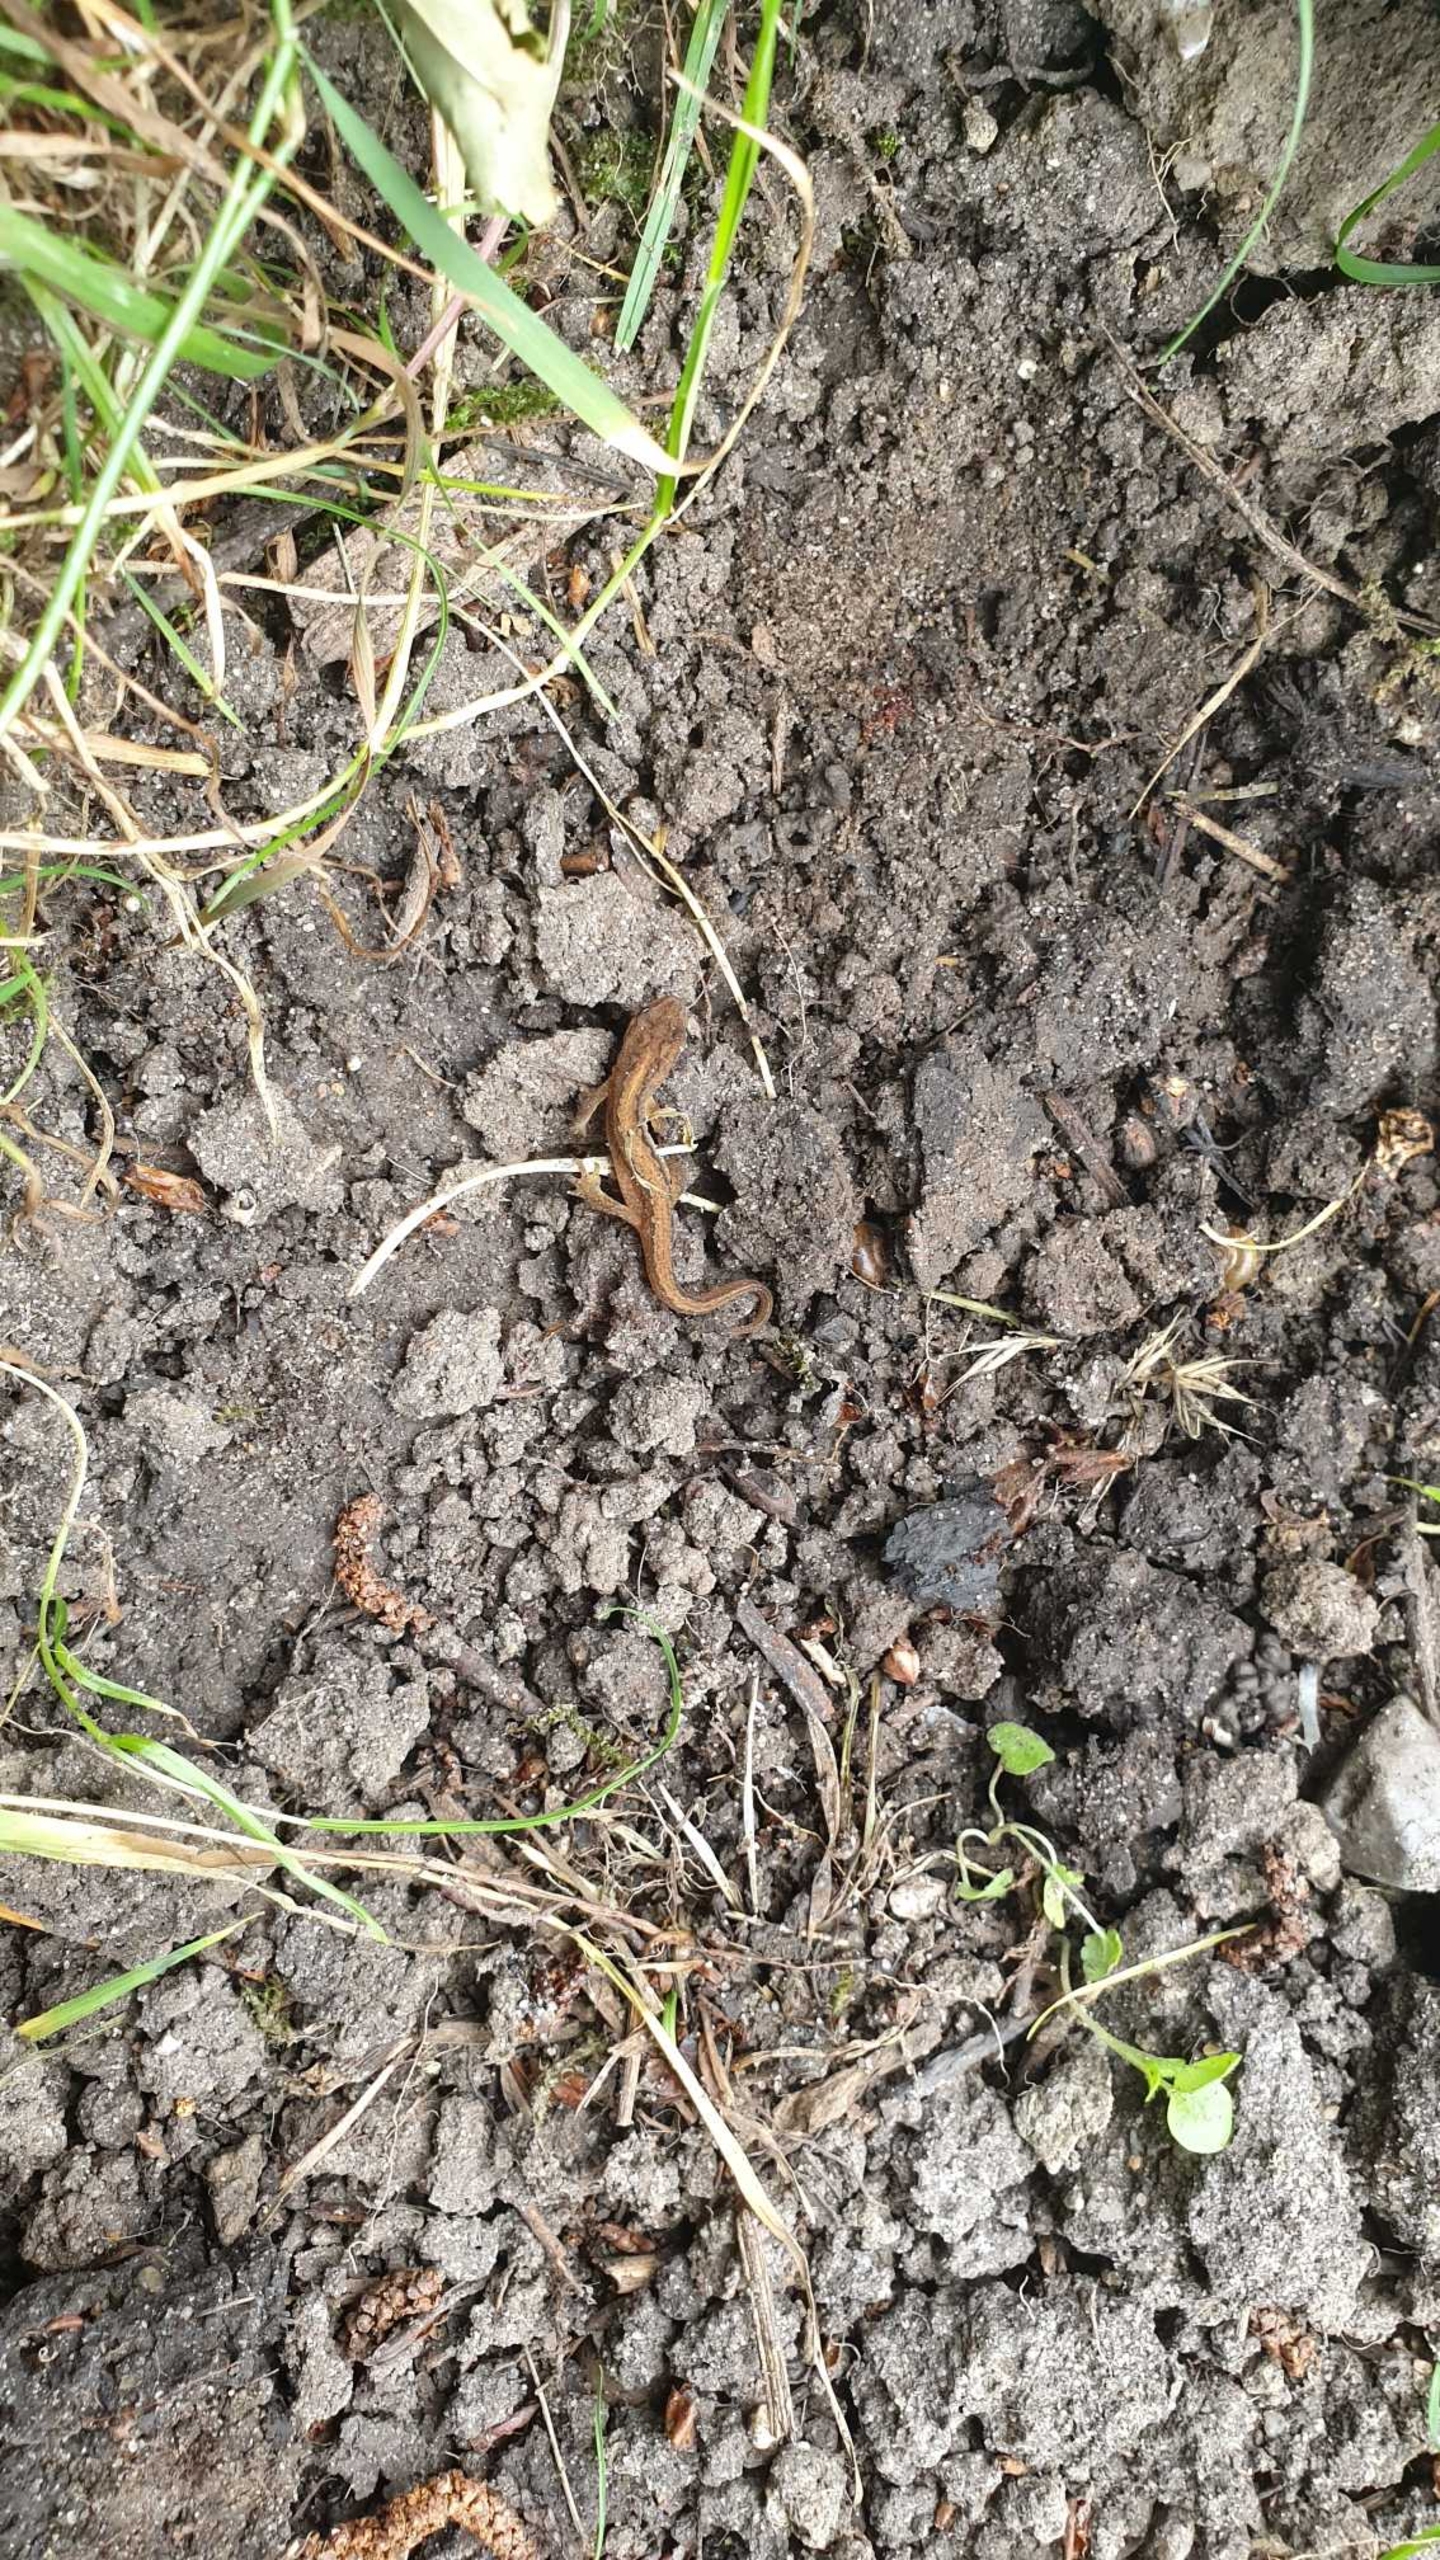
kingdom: Animalia
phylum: Chordata
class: Amphibia
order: Caudata
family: Salamandridae
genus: Lissotriton
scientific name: Lissotriton vulgaris
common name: Lille vandsalamander
